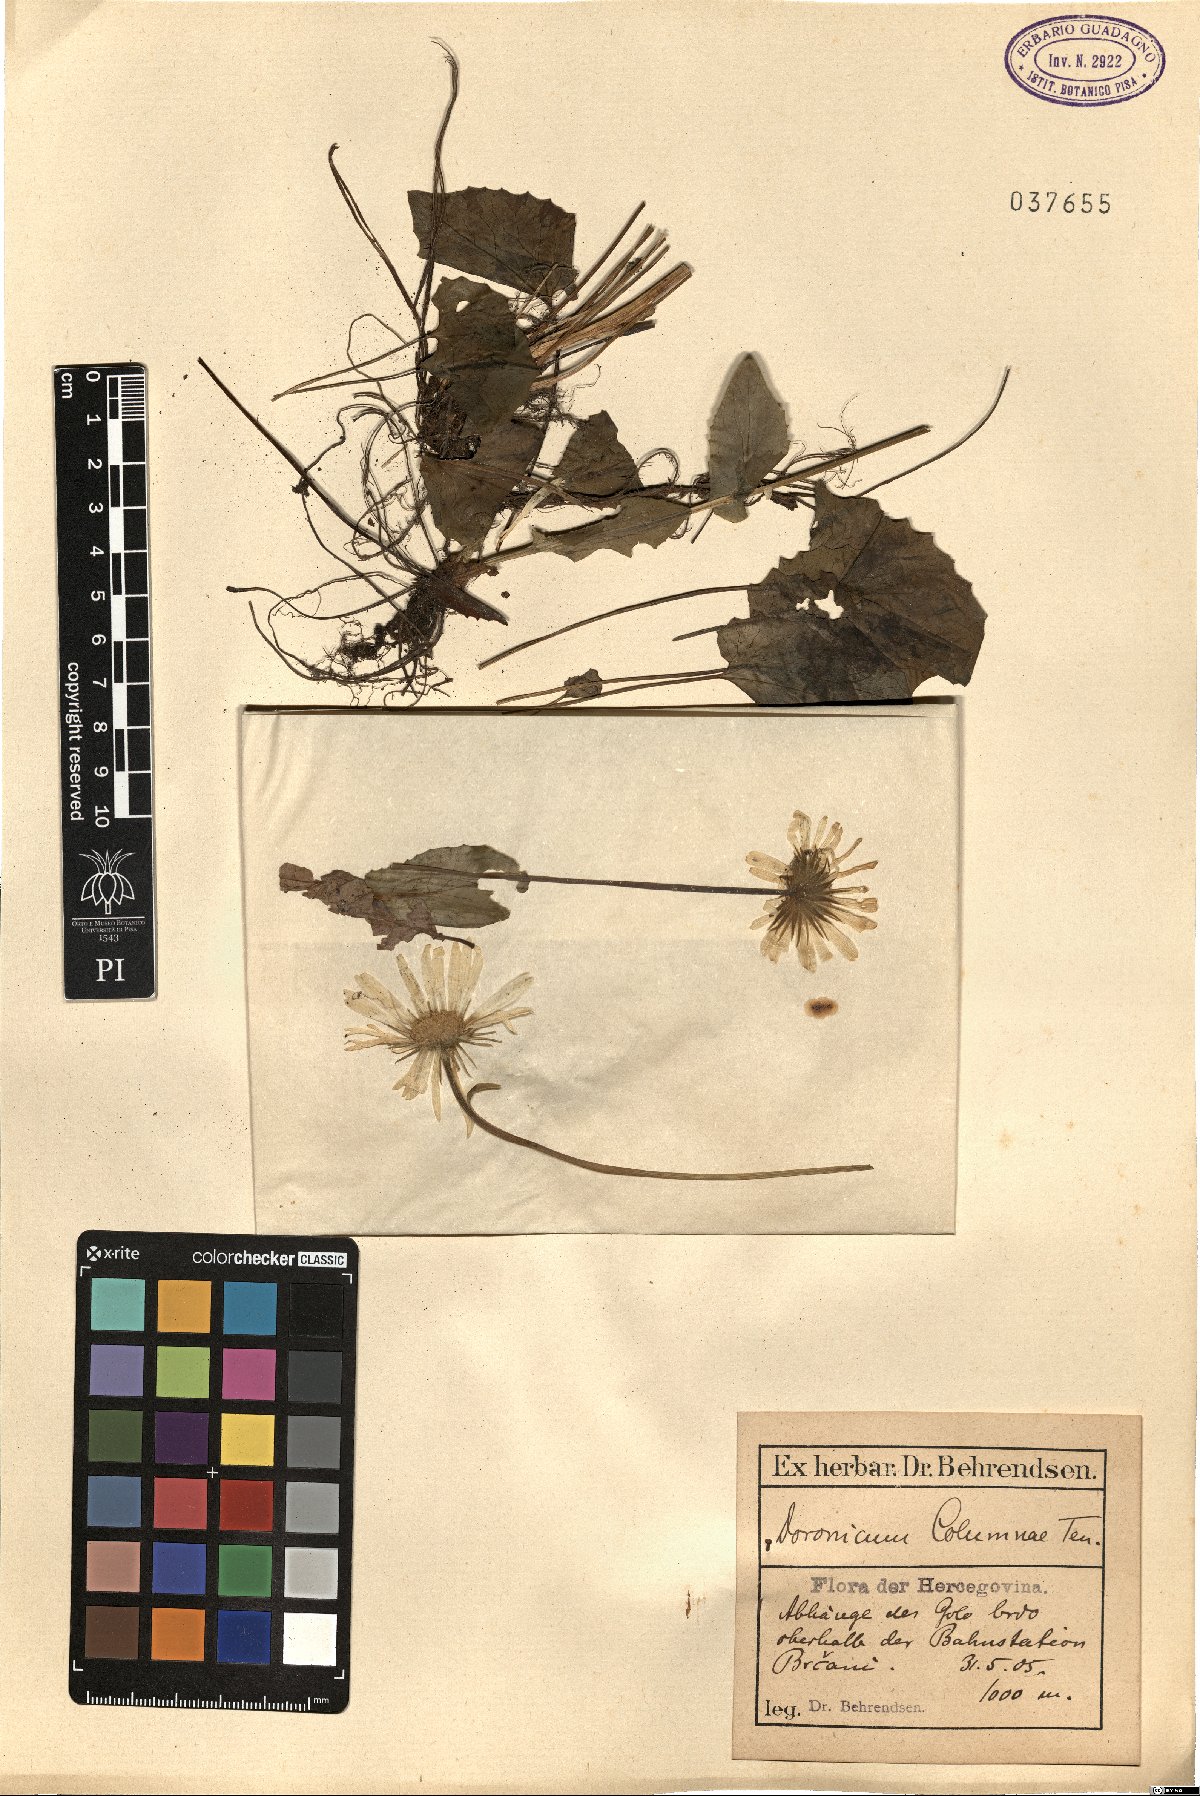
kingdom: Plantae
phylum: Tracheophyta
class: Magnoliopsida
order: Asterales
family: Asteraceae
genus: Doronicum
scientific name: Doronicum columnae
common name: Eastern leopard's-bane
